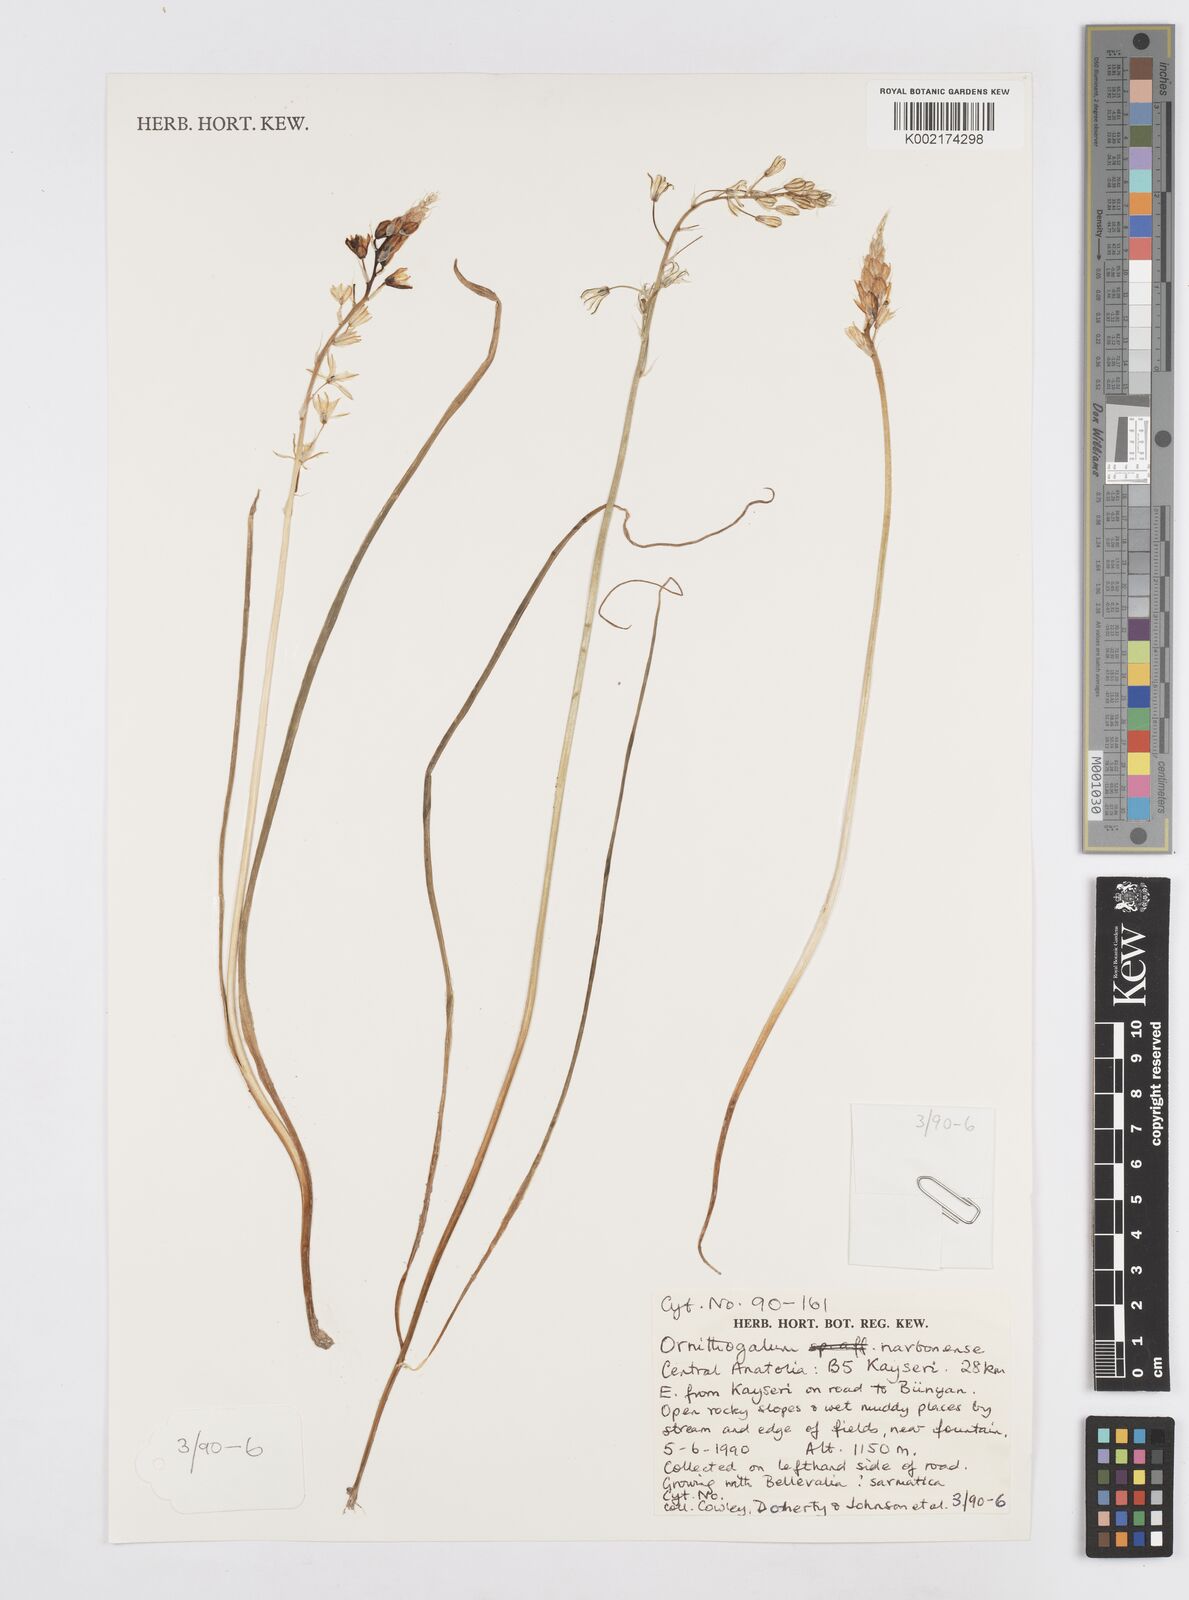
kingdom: Plantae
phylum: Tracheophyta
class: Liliopsida
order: Asparagales
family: Asparagaceae
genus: Ornithogalum
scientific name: Ornithogalum narbonense
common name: Bath-asparagus
